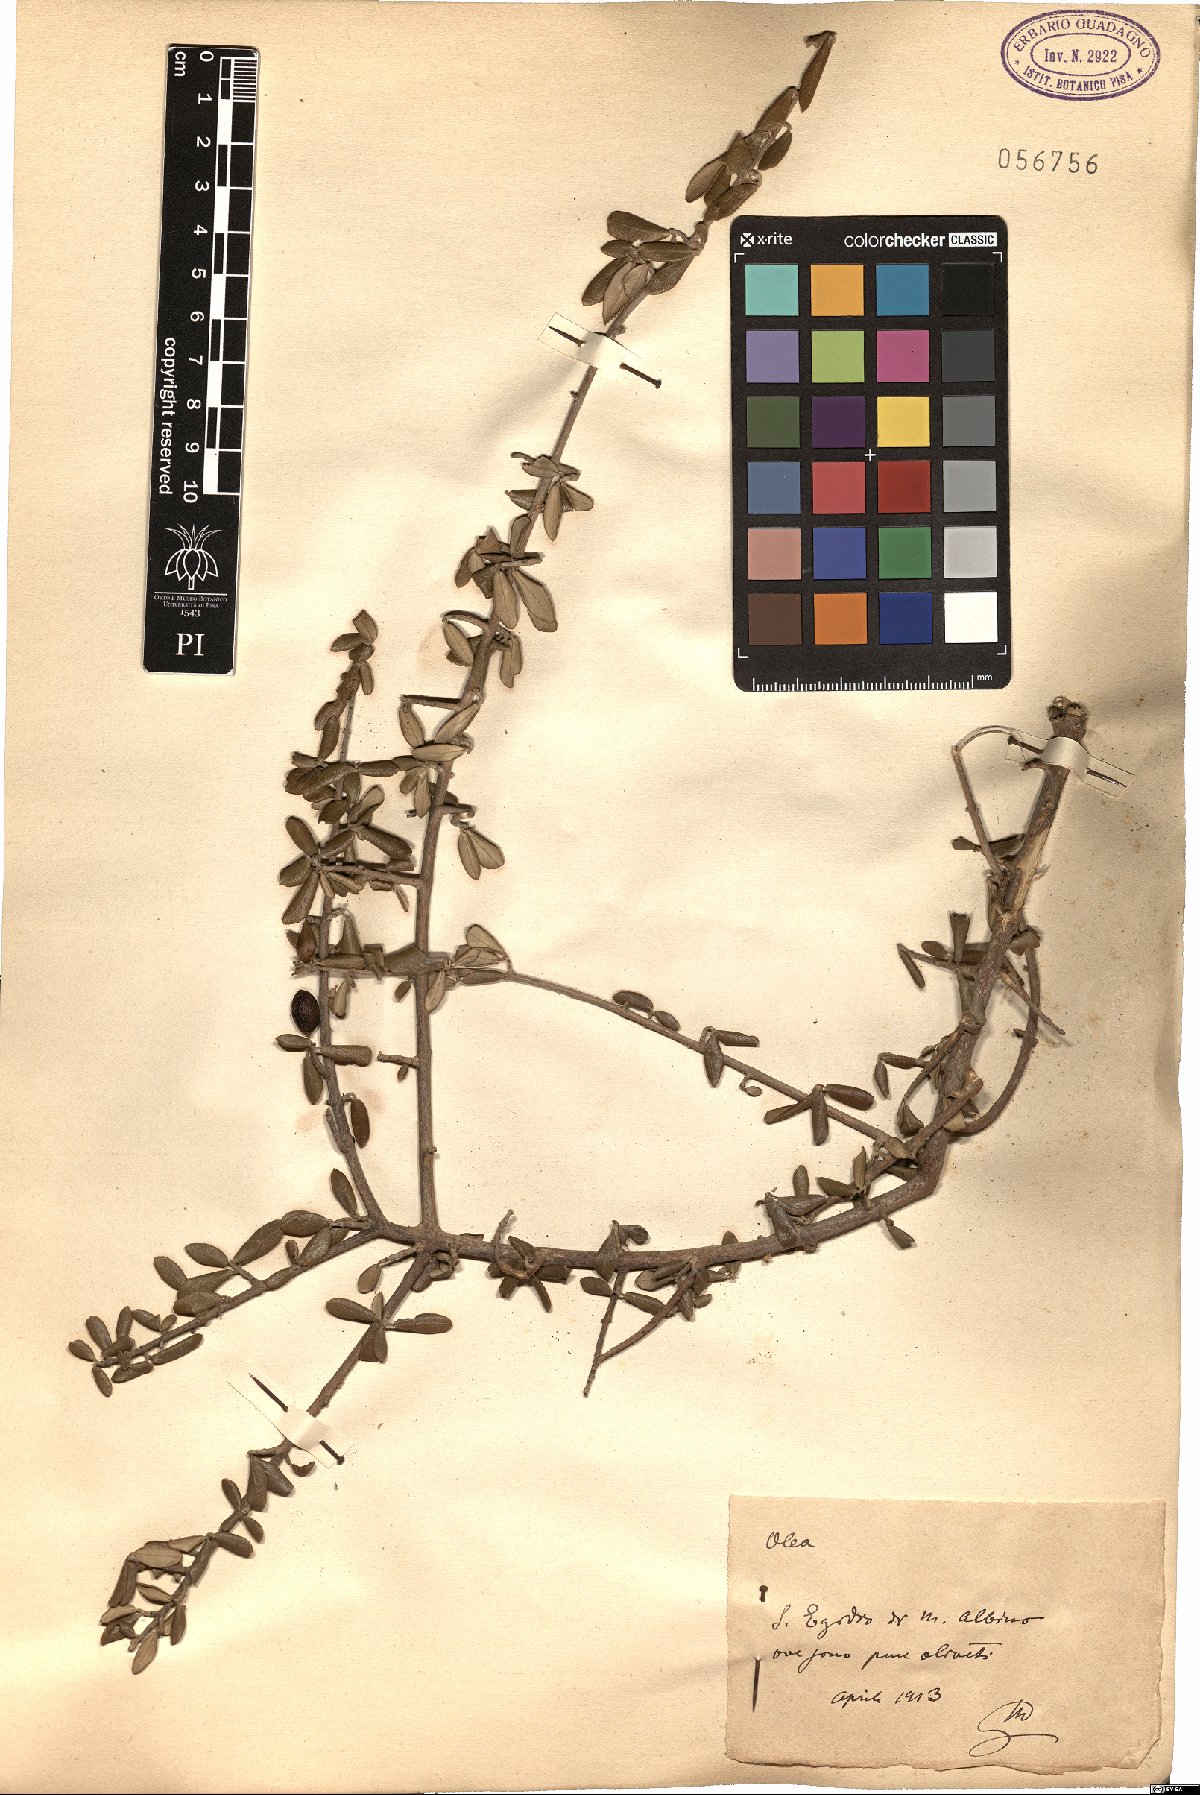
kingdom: Plantae
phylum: Tracheophyta
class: Magnoliopsida
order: Lamiales
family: Oleaceae
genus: Olea
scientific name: Olea
